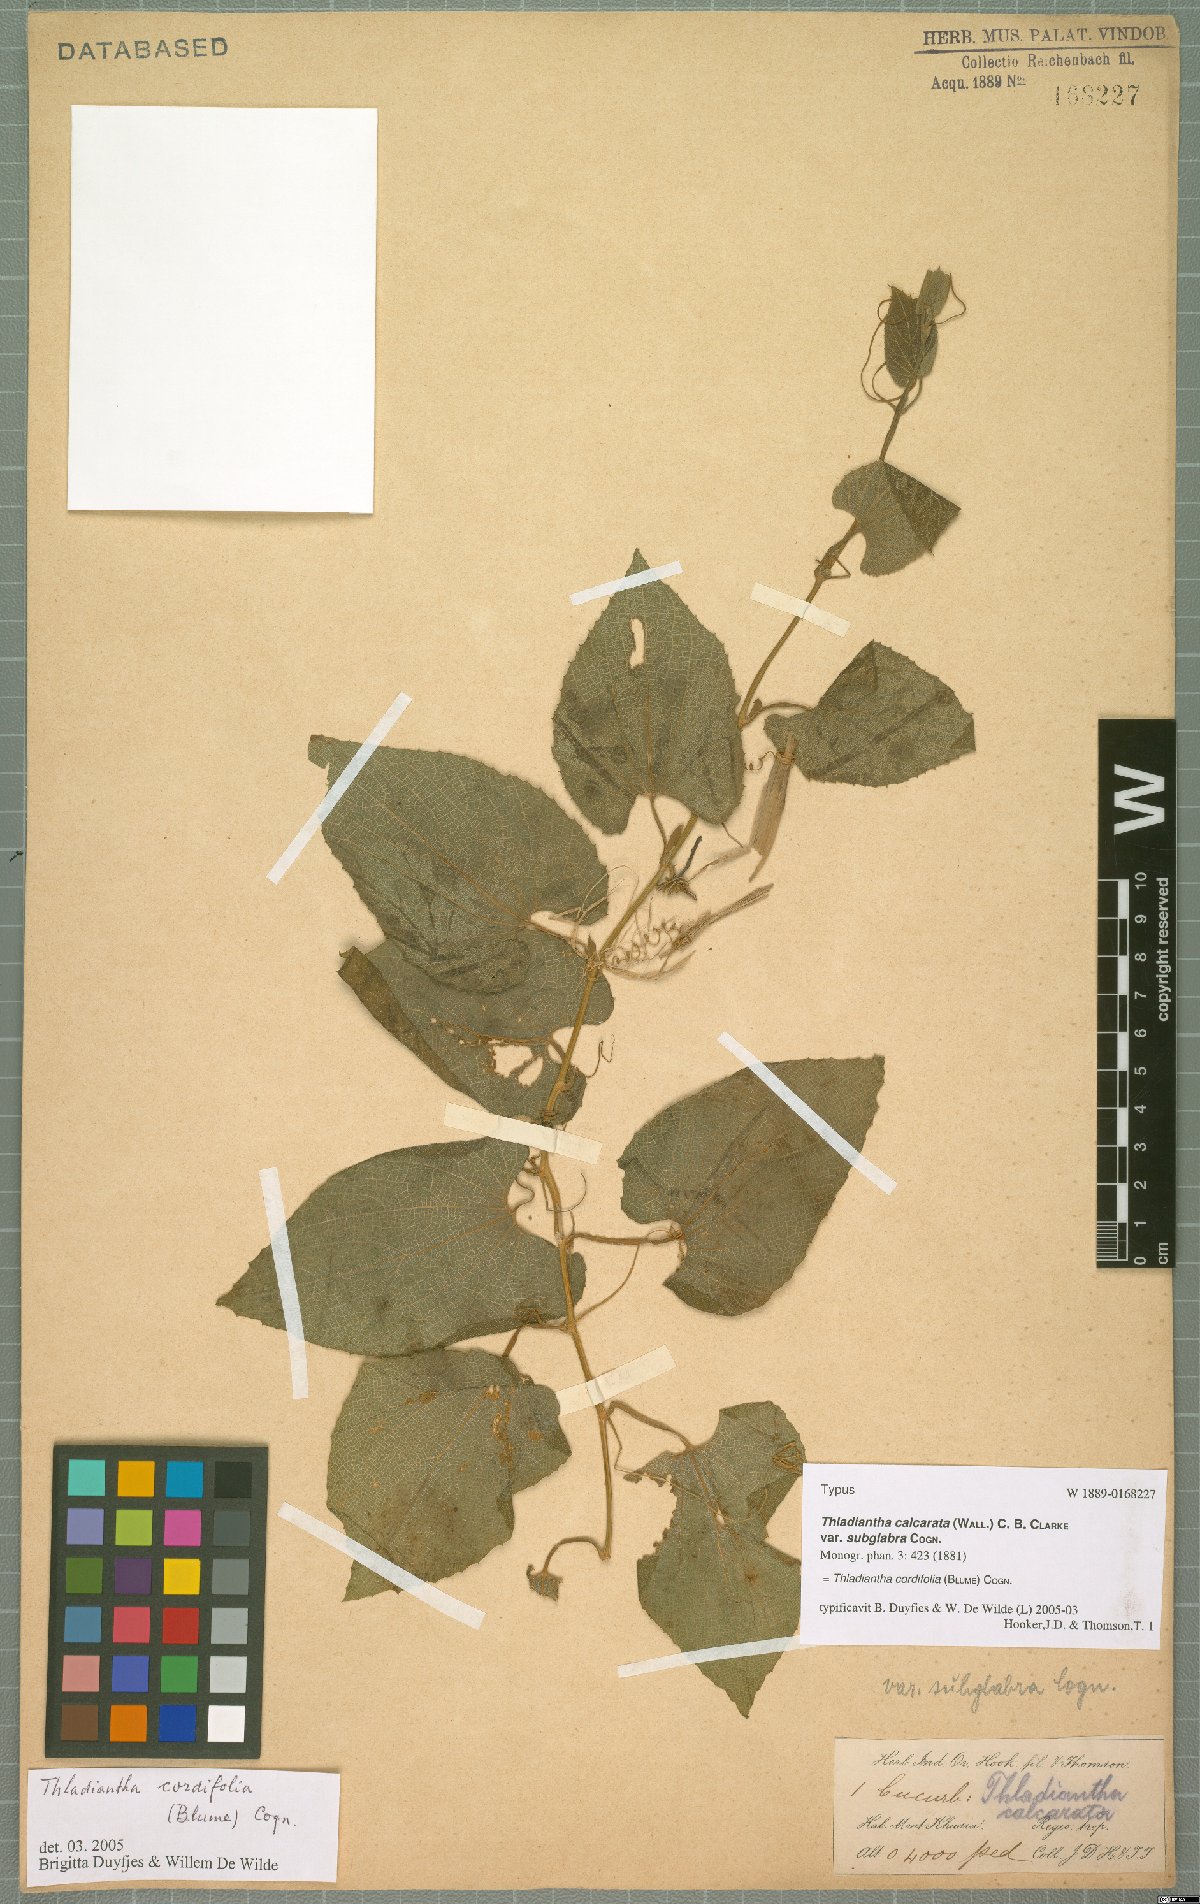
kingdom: Plantae
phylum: Tracheophyta
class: Magnoliopsida
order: Cucurbitales
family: Cucurbitaceae
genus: Thladiantha
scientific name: Thladiantha cordifolia
